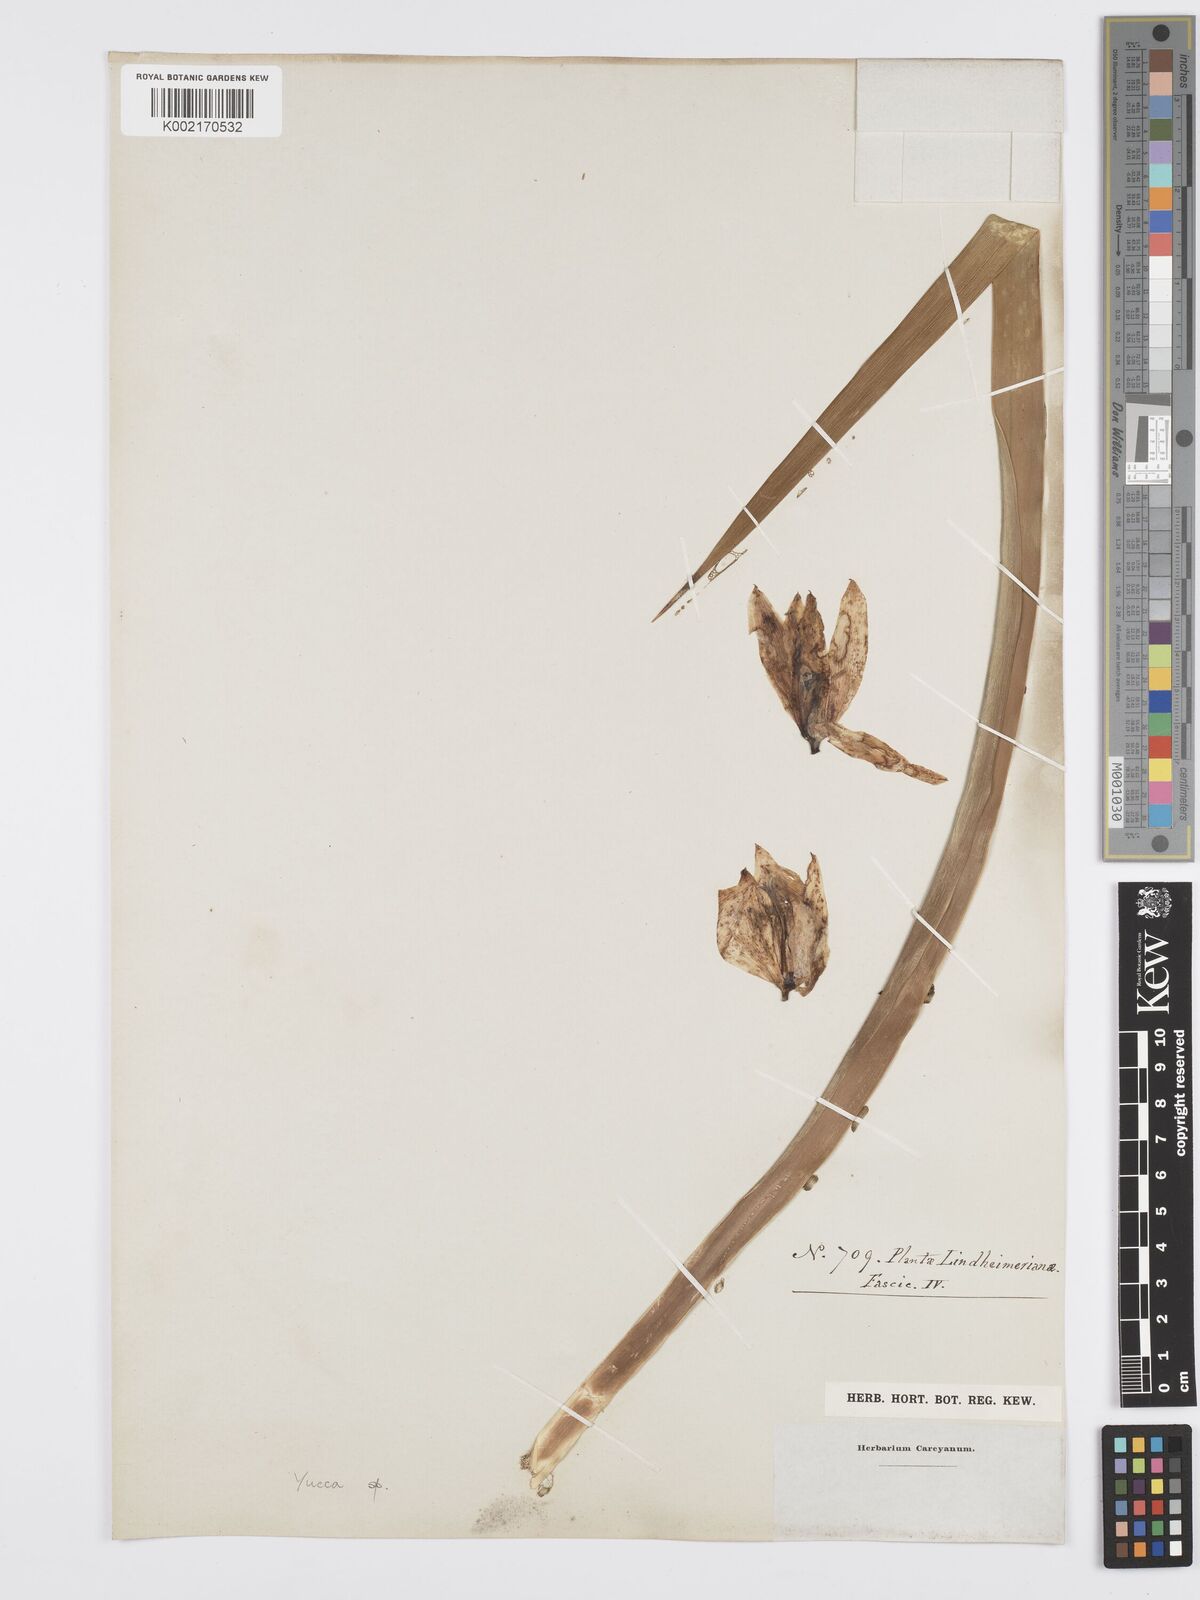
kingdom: Plantae
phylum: Tracheophyta
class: Liliopsida
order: Asparagales
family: Asparagaceae
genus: Yucca
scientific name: Yucca
